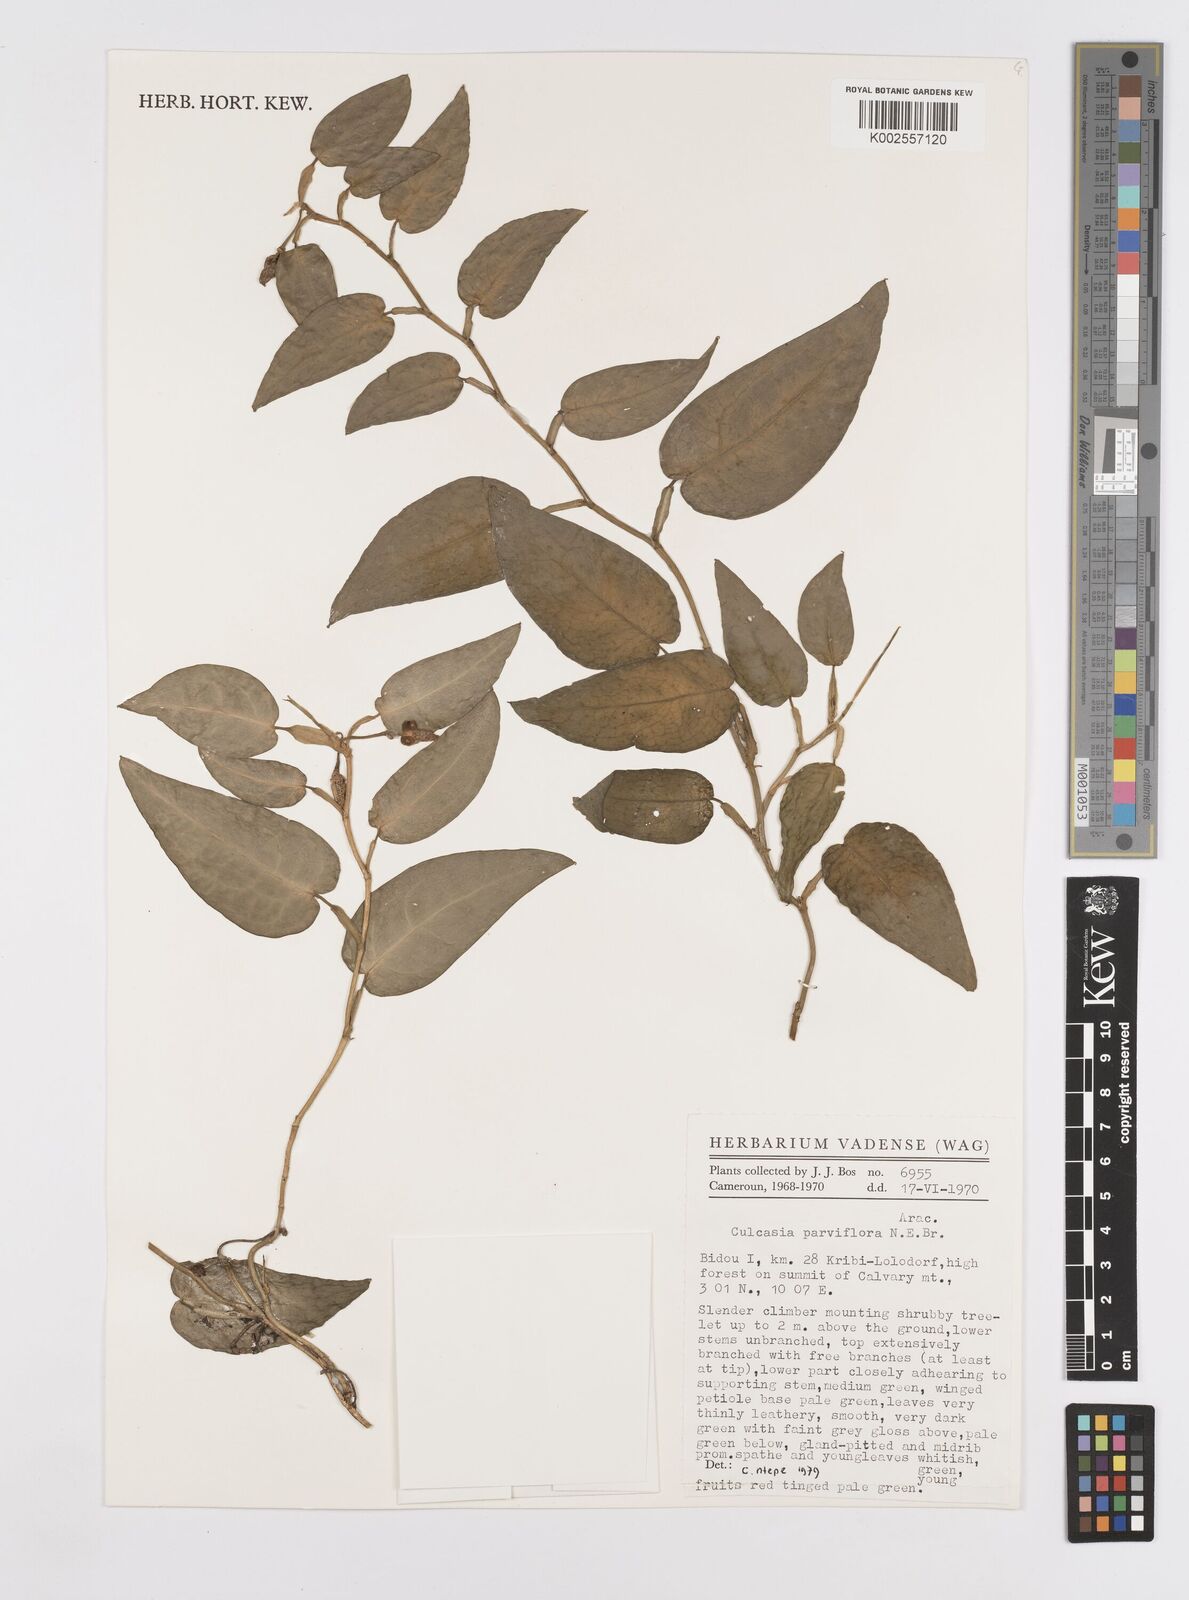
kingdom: Plantae
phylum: Tracheophyta
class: Liliopsida
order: Alismatales
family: Araceae
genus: Culcasia
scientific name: Culcasia parviflora
